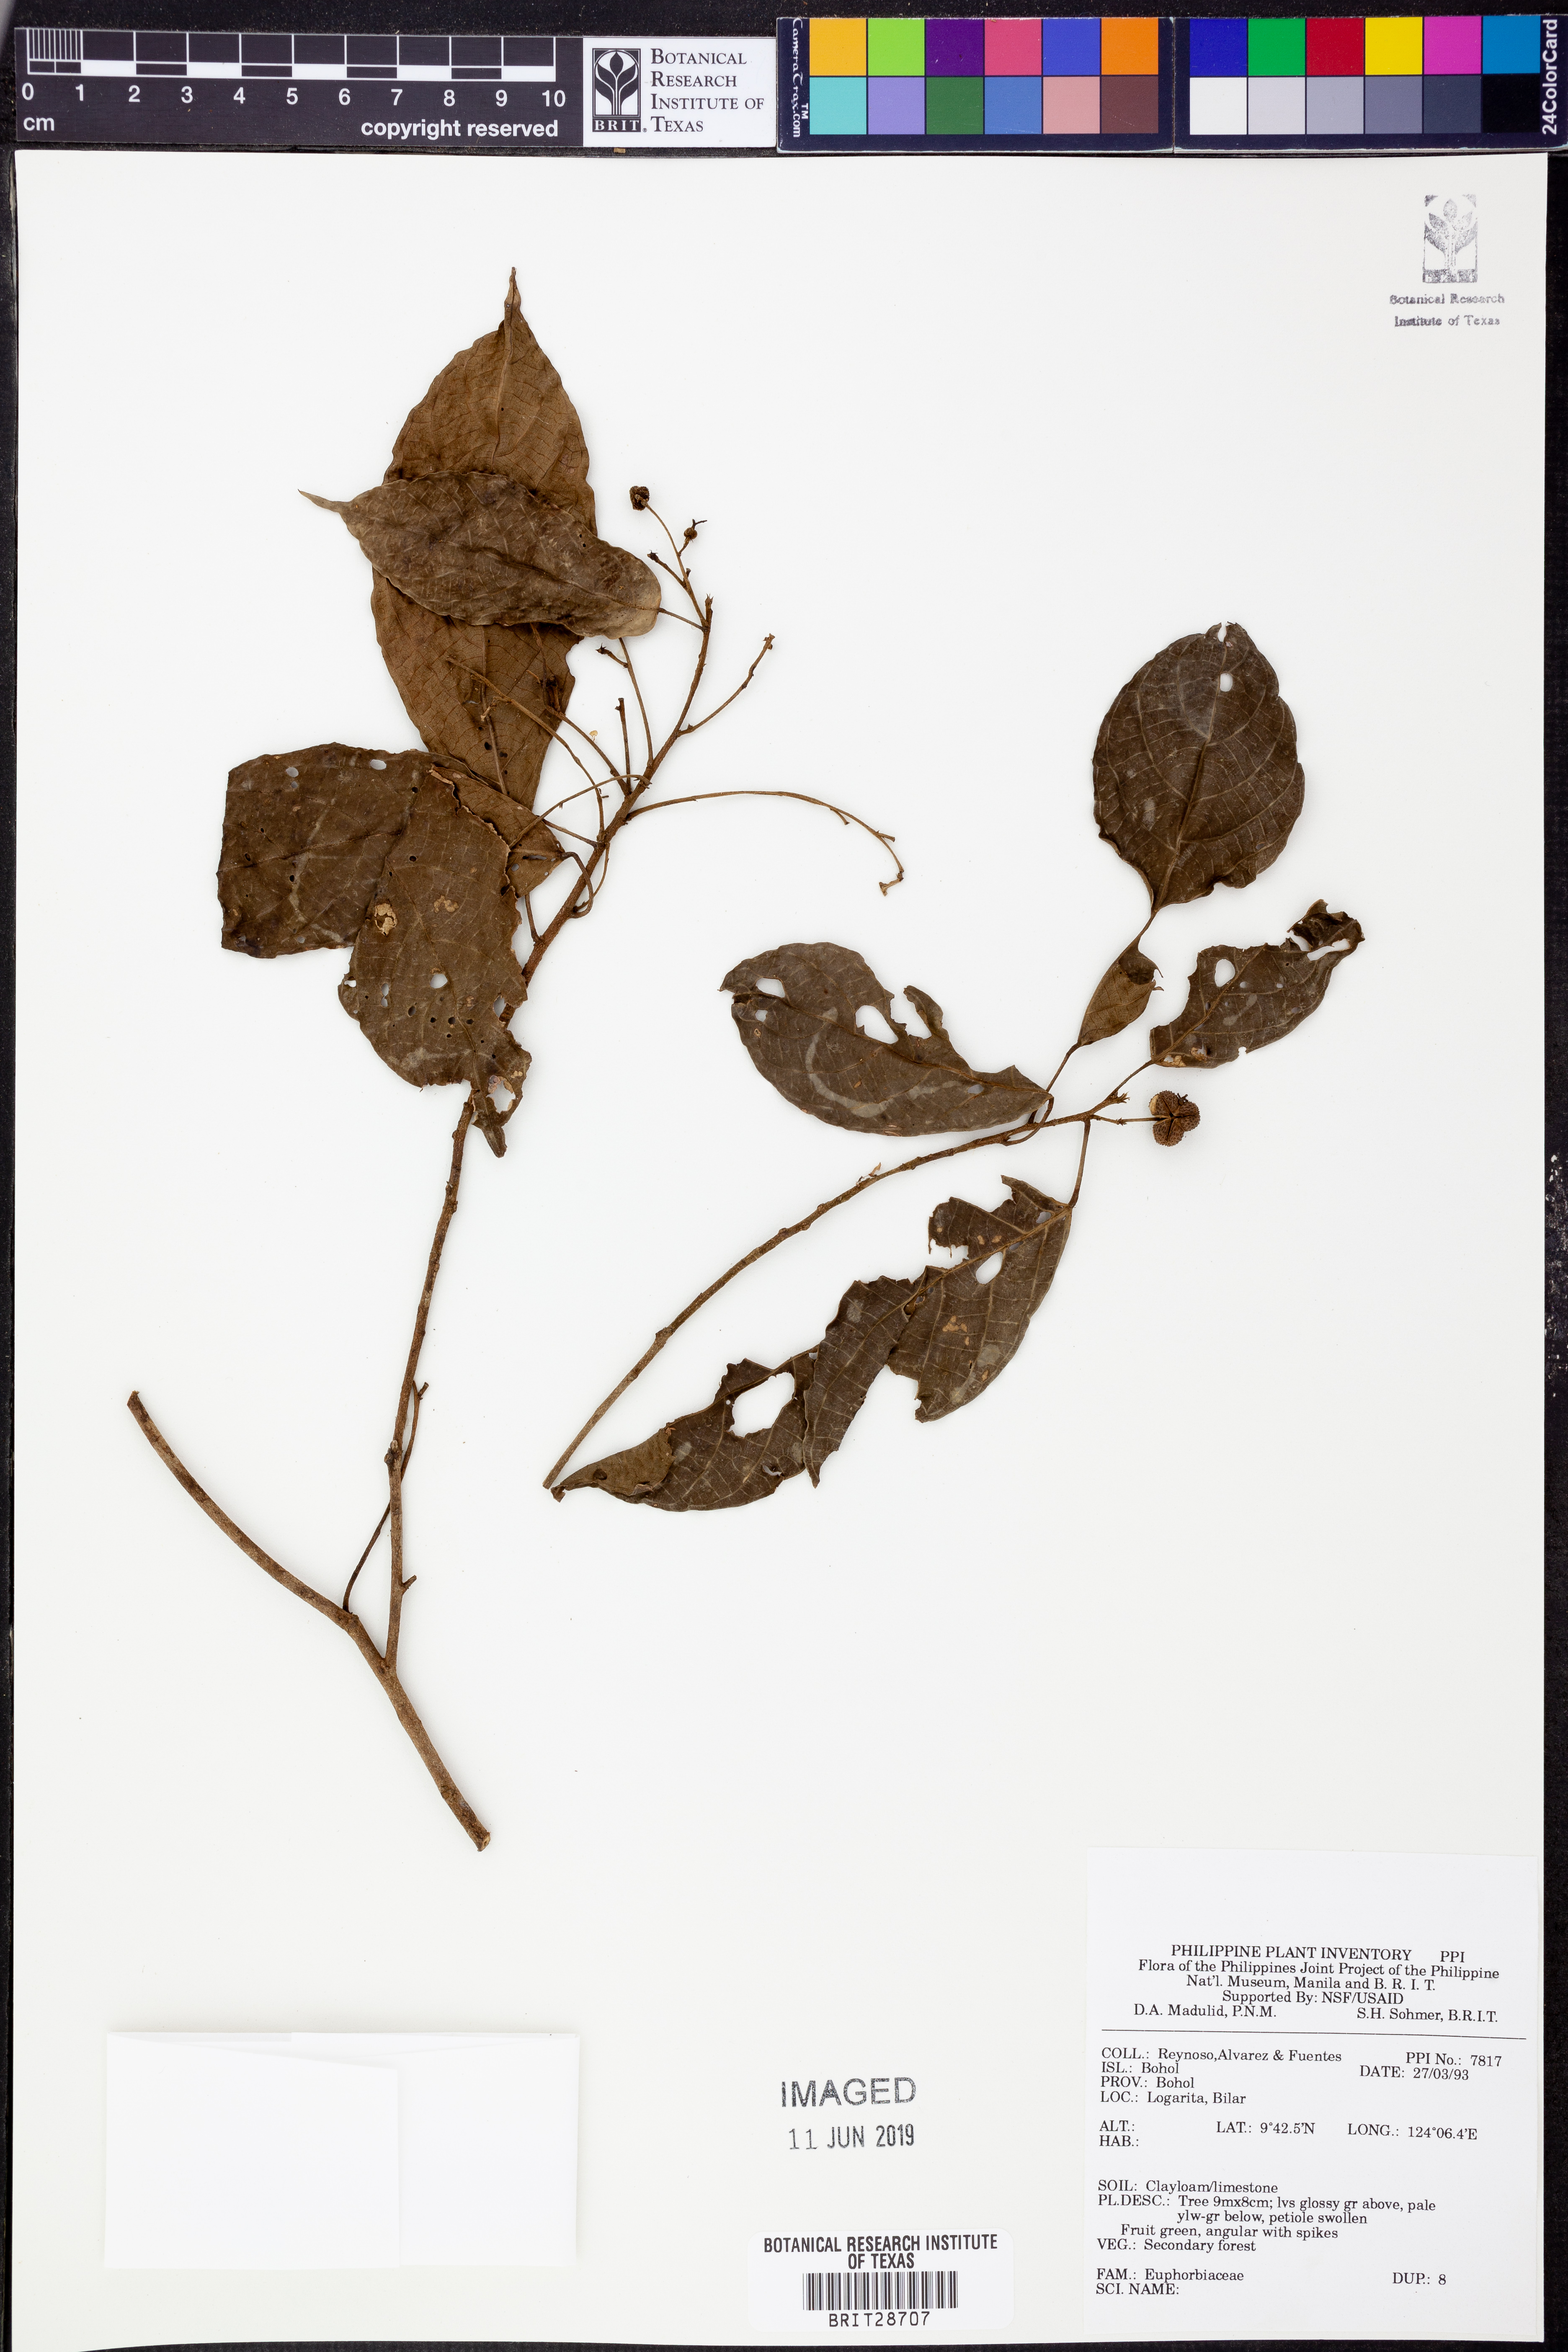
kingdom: Plantae
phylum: Tracheophyta
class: Magnoliopsida
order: Malpighiales
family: Euphorbiaceae
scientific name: Euphorbiaceae
